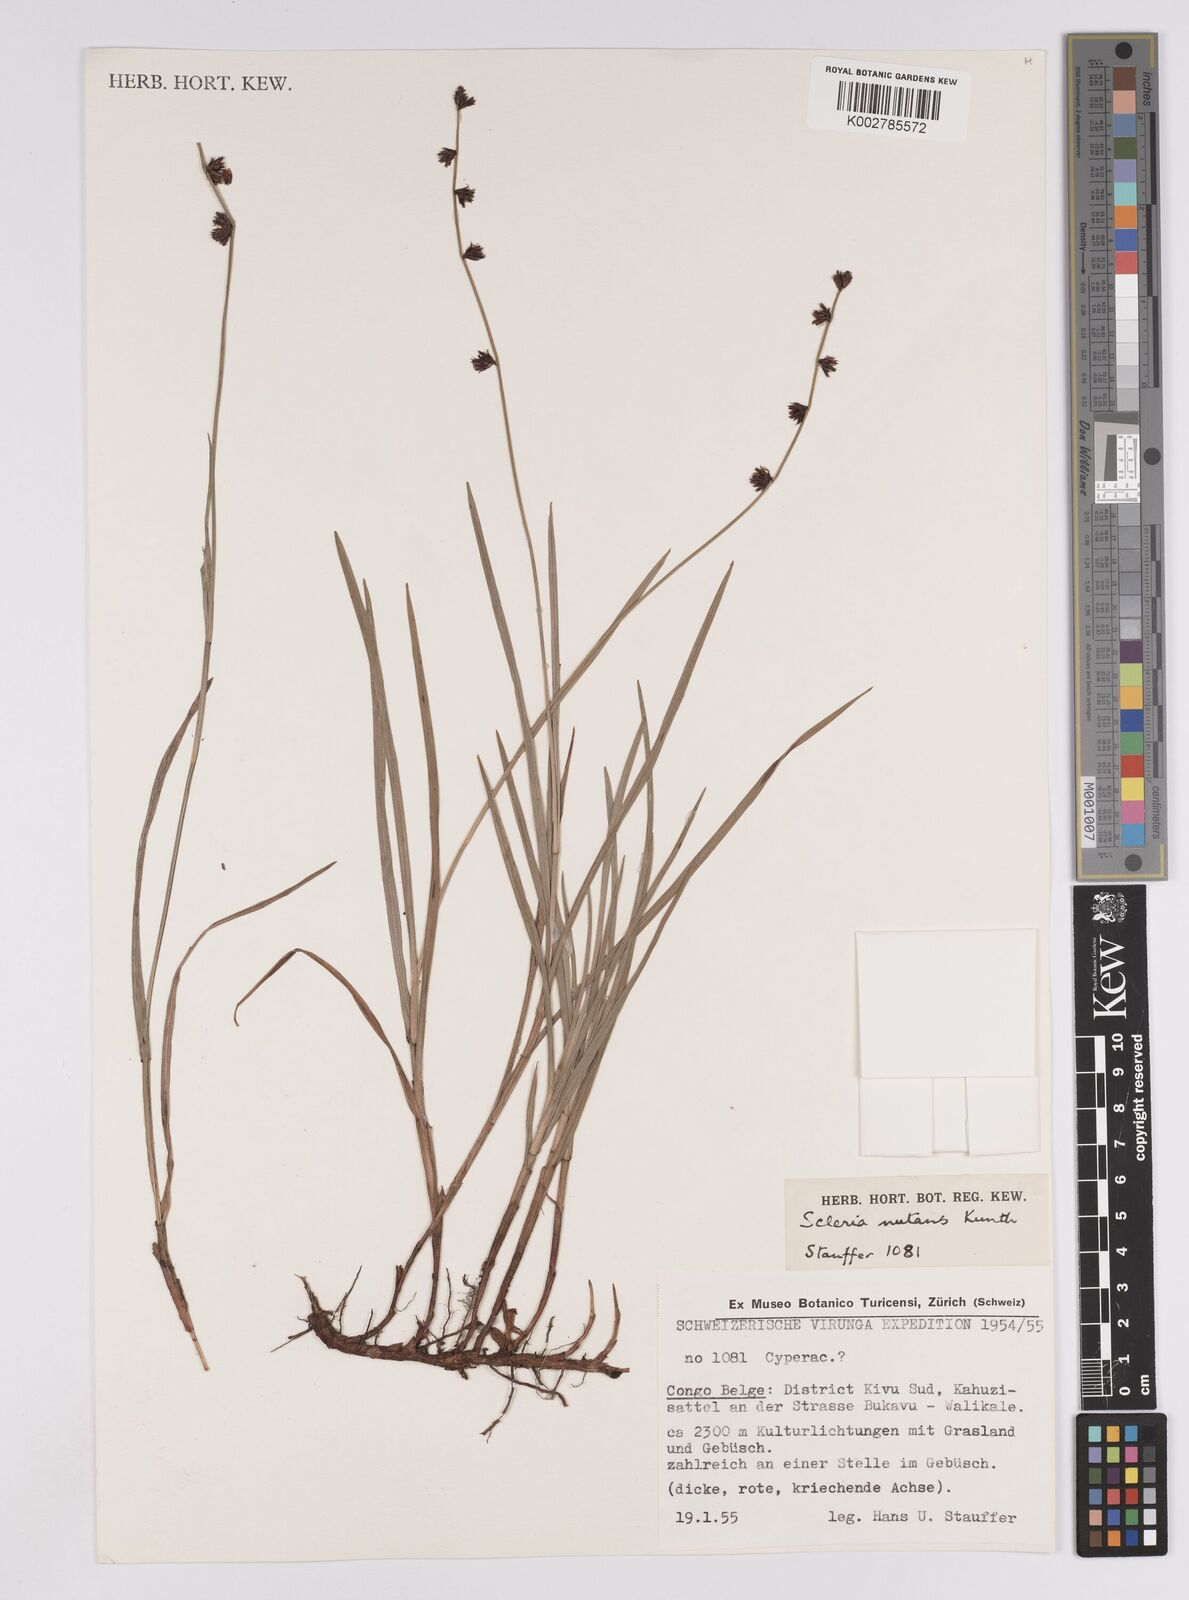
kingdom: Plantae
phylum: Tracheophyta
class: Liliopsida
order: Poales
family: Cyperaceae
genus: Scleria
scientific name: Scleria distans
